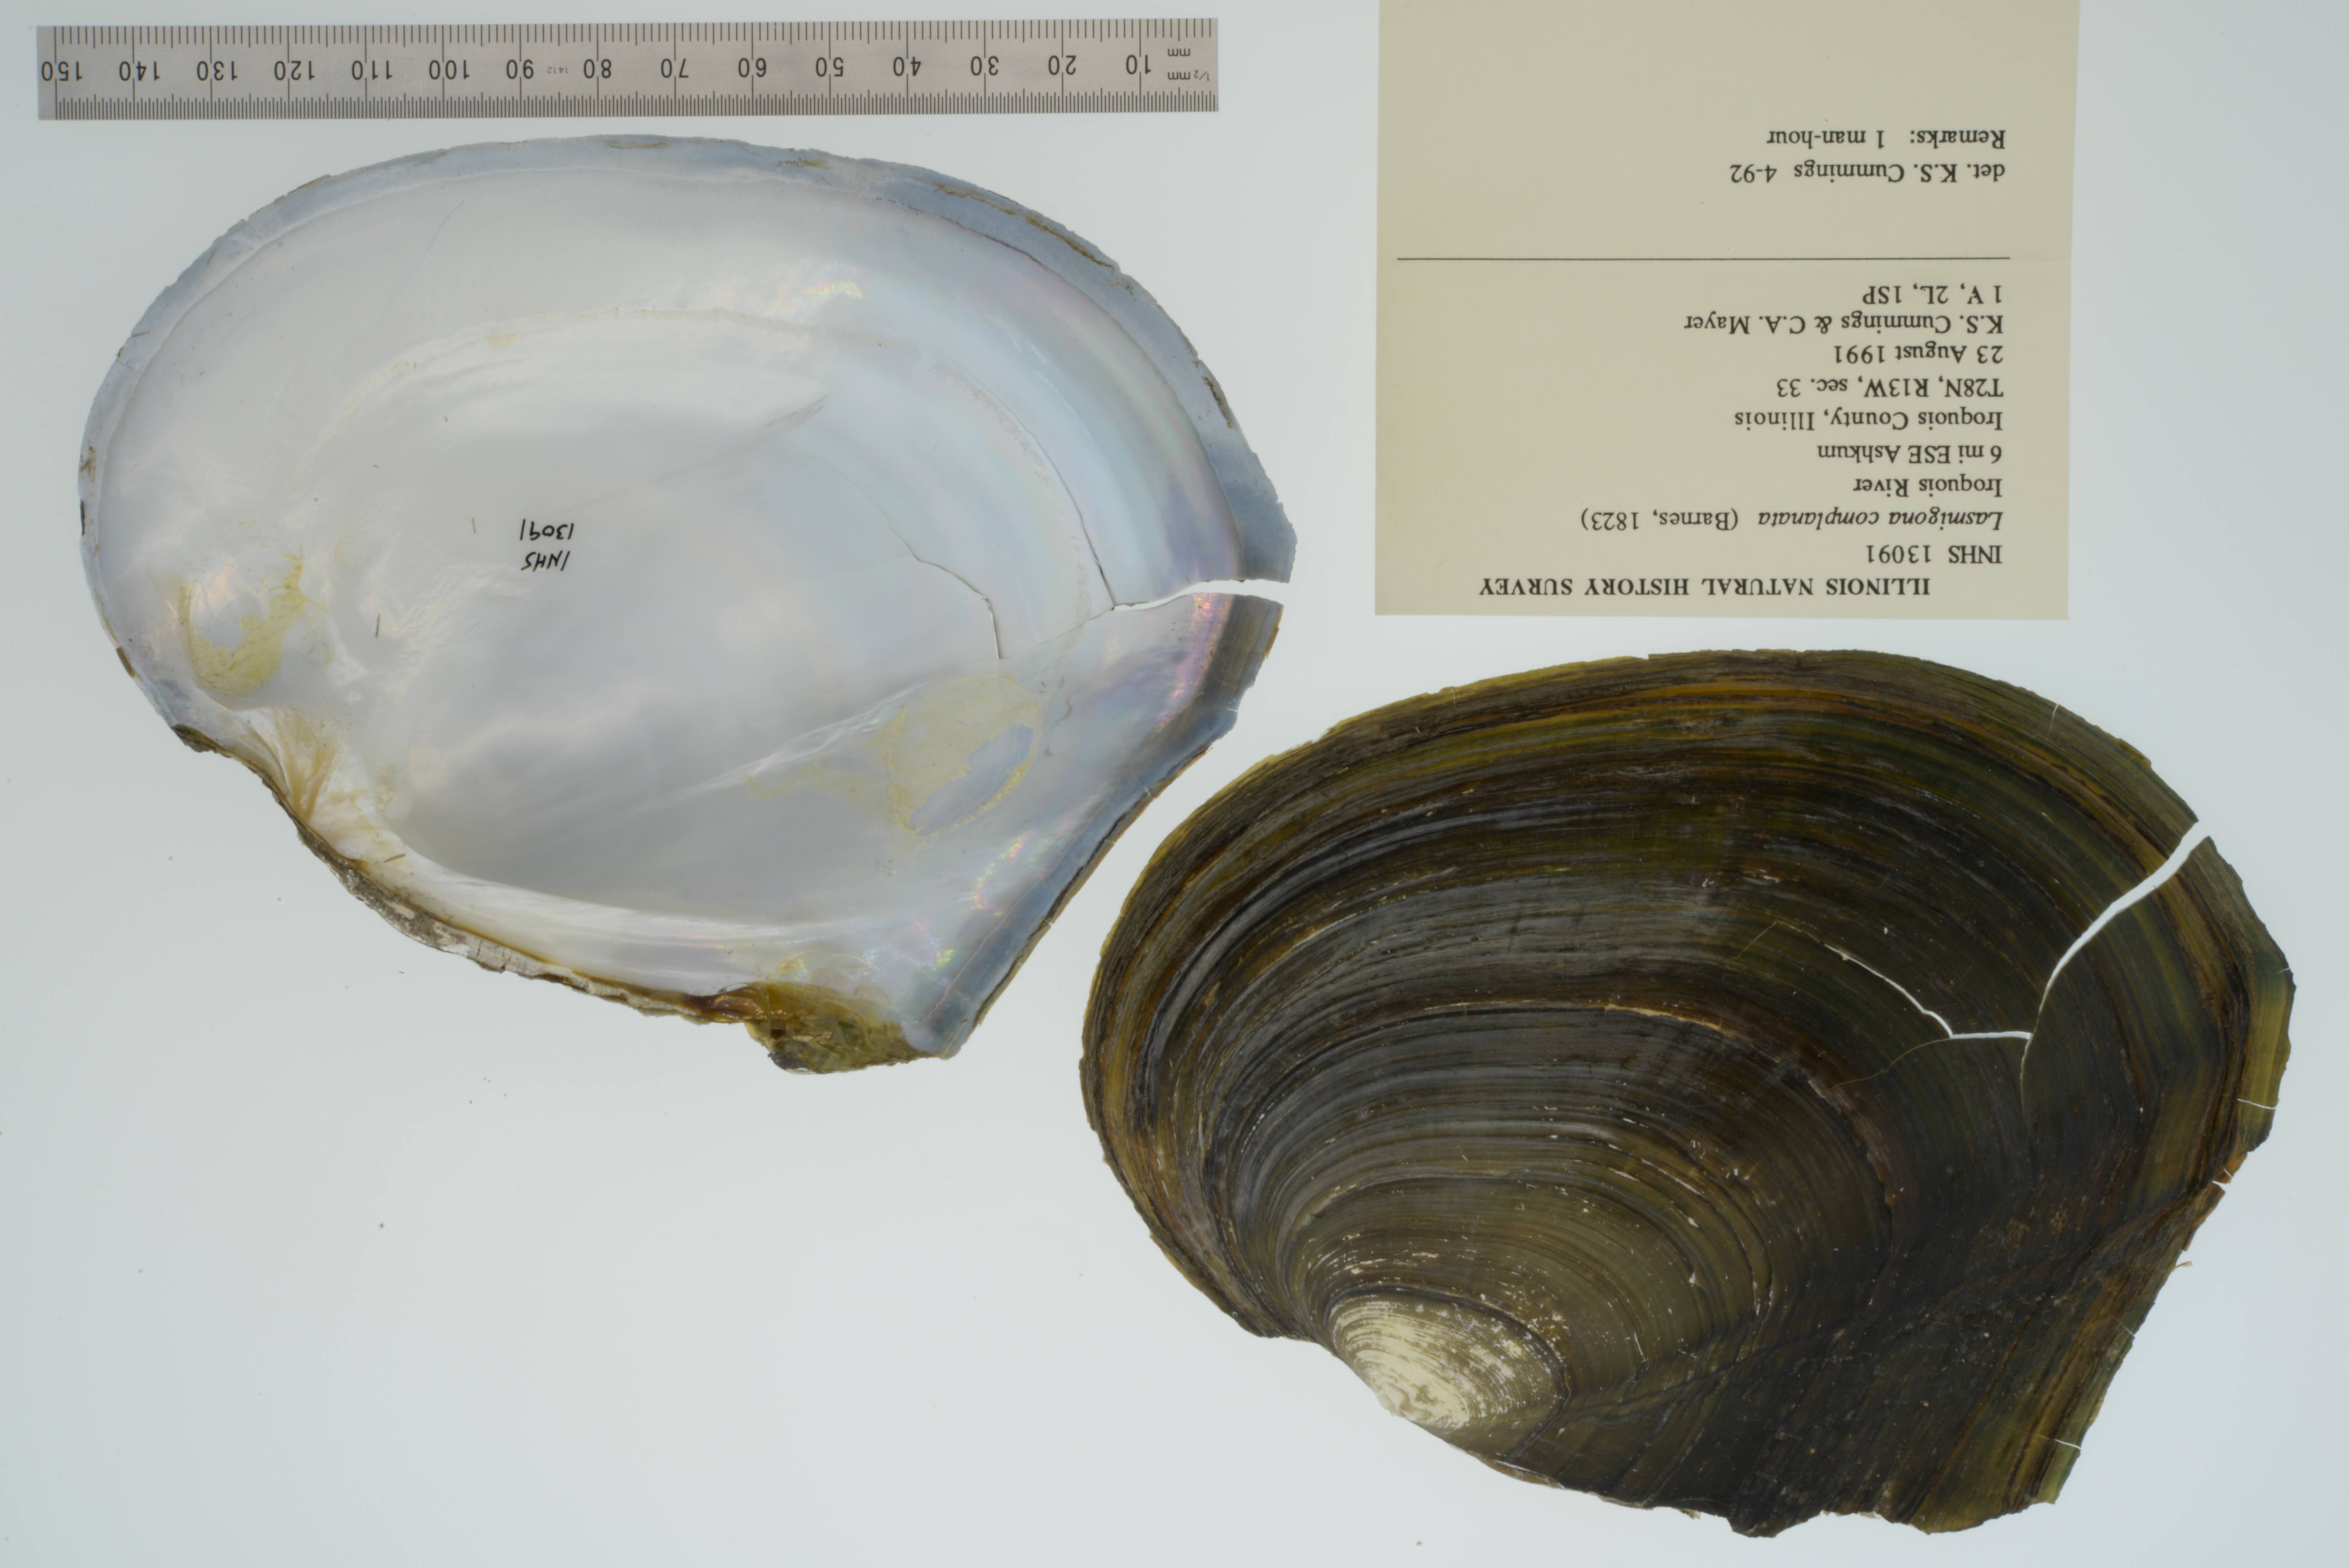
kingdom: Animalia
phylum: Mollusca
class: Bivalvia
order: Unionida
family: Unionidae
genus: Lasmigona
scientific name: Lasmigona complanata
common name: White heelsplitter
